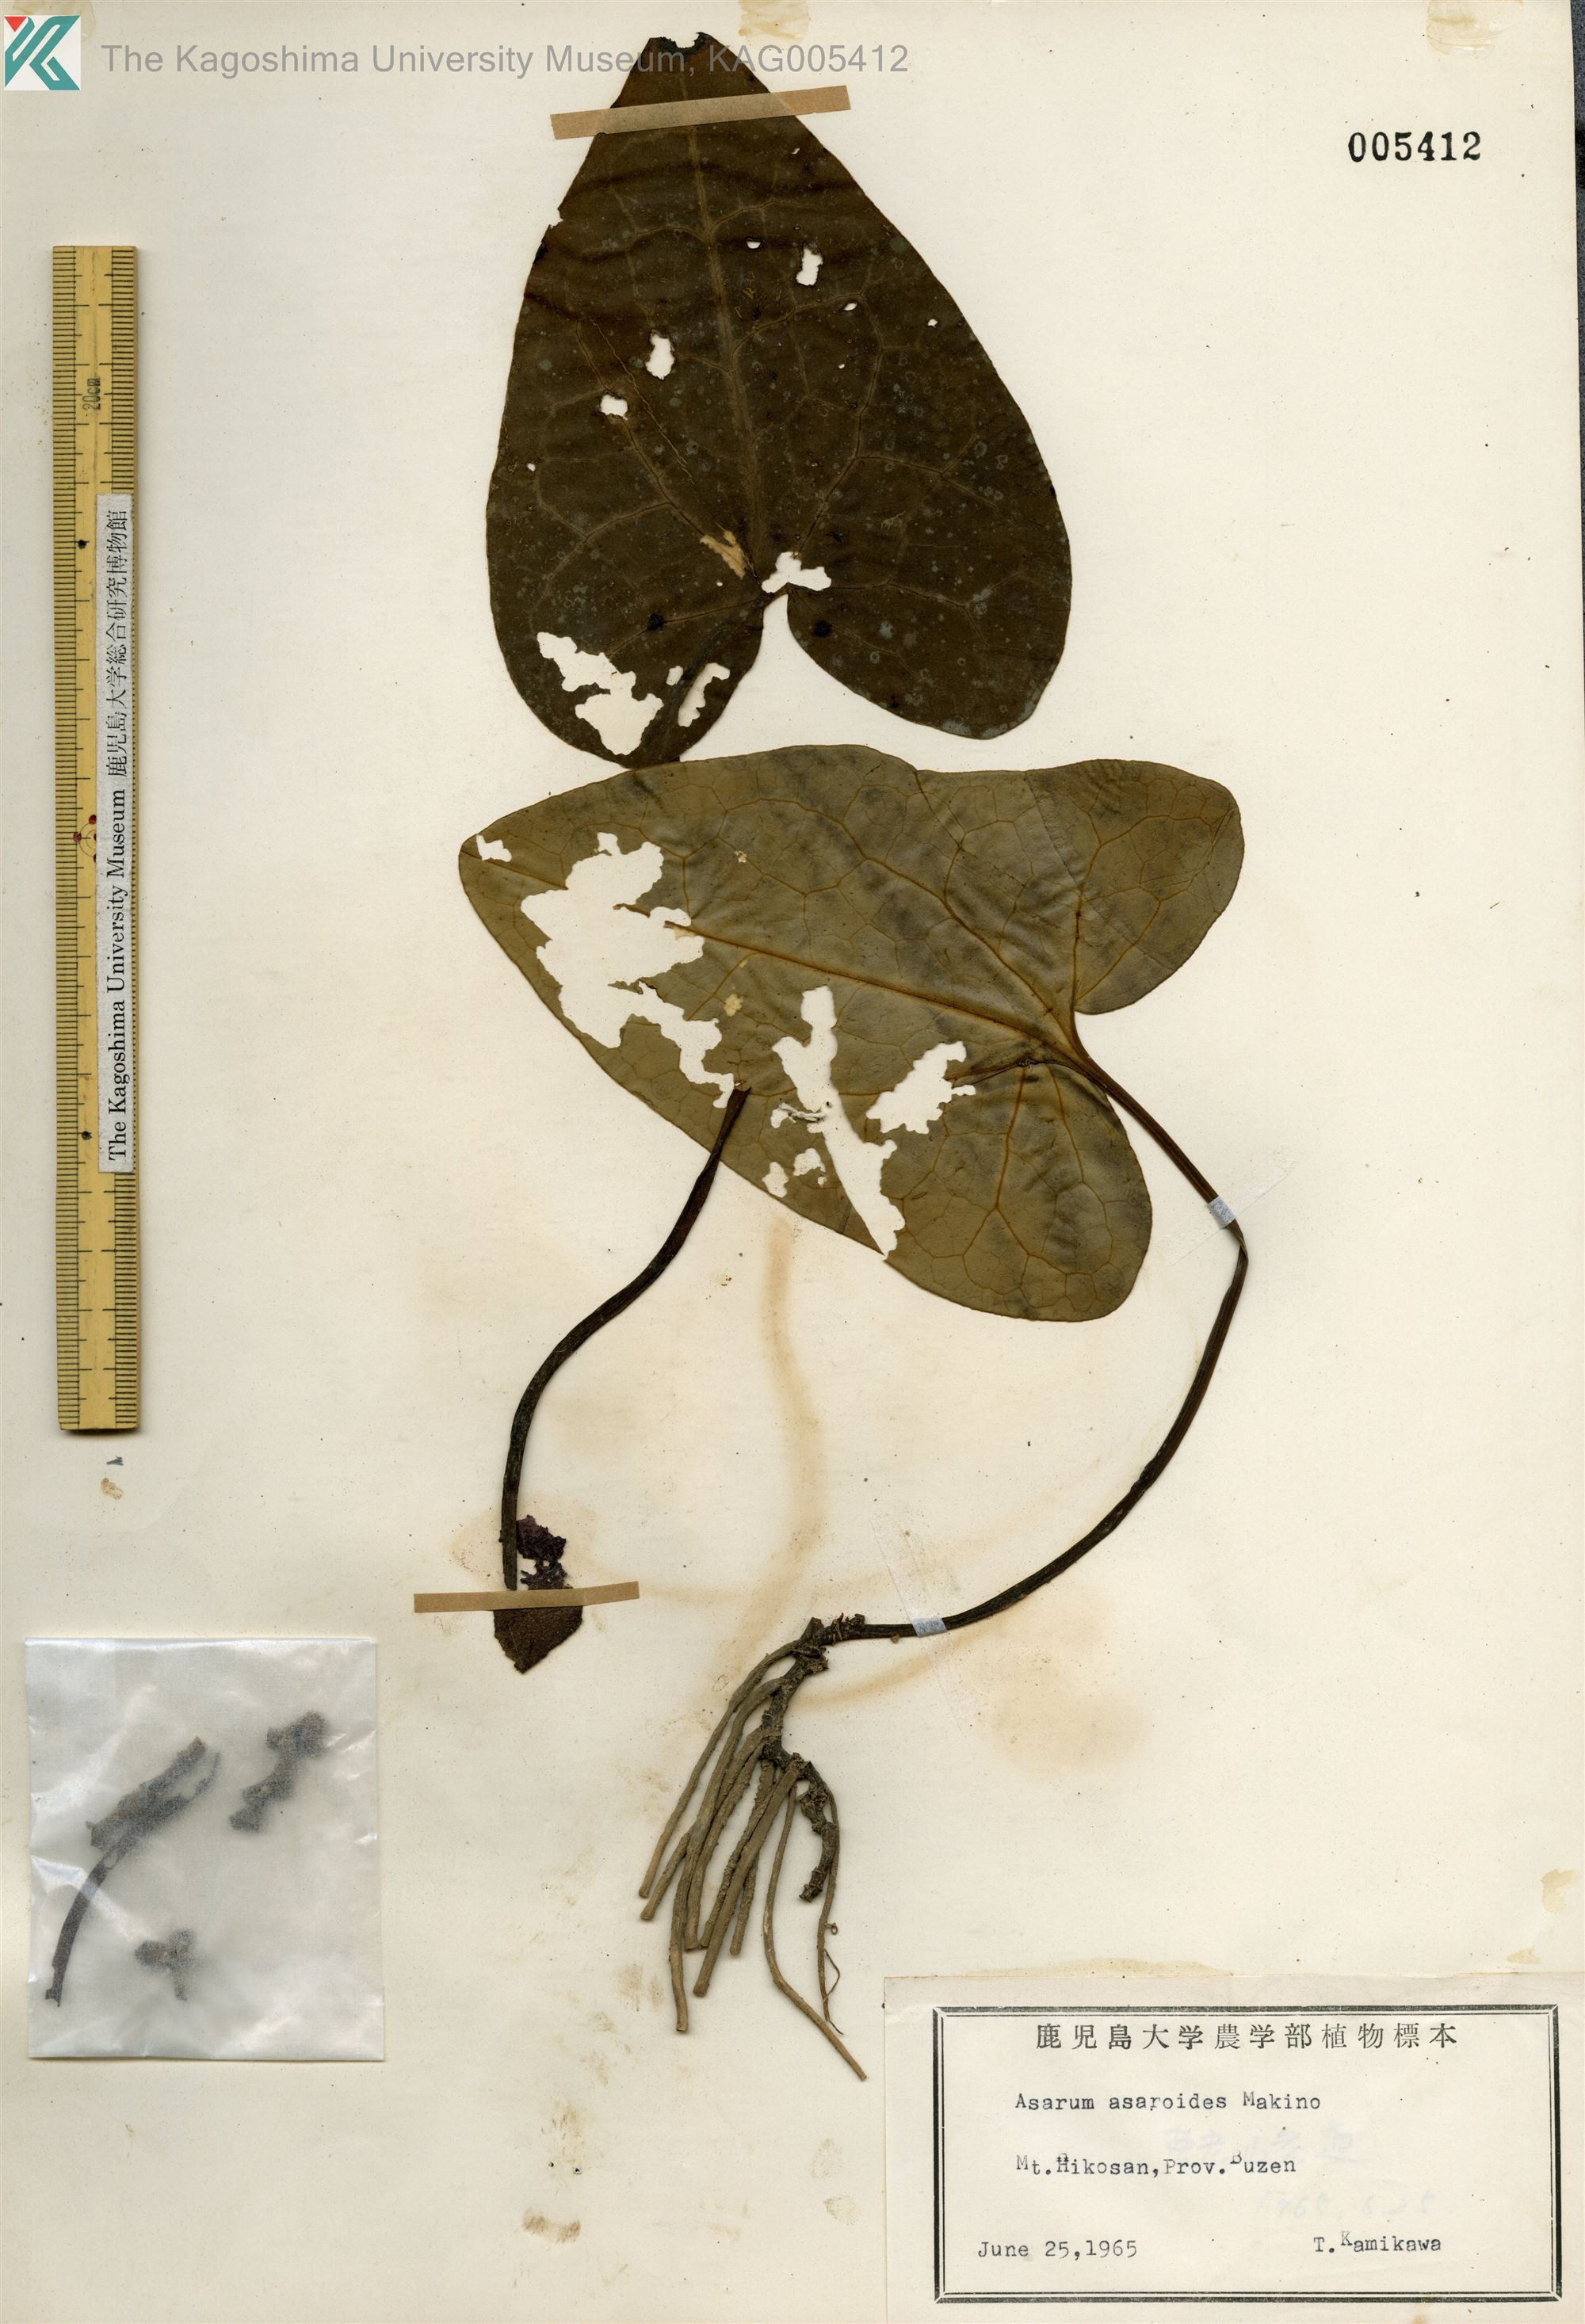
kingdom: Plantae
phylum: Tracheophyta
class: Magnoliopsida
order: Piperales
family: Aristolochiaceae
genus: Asarum
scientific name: Asarum asaroides
